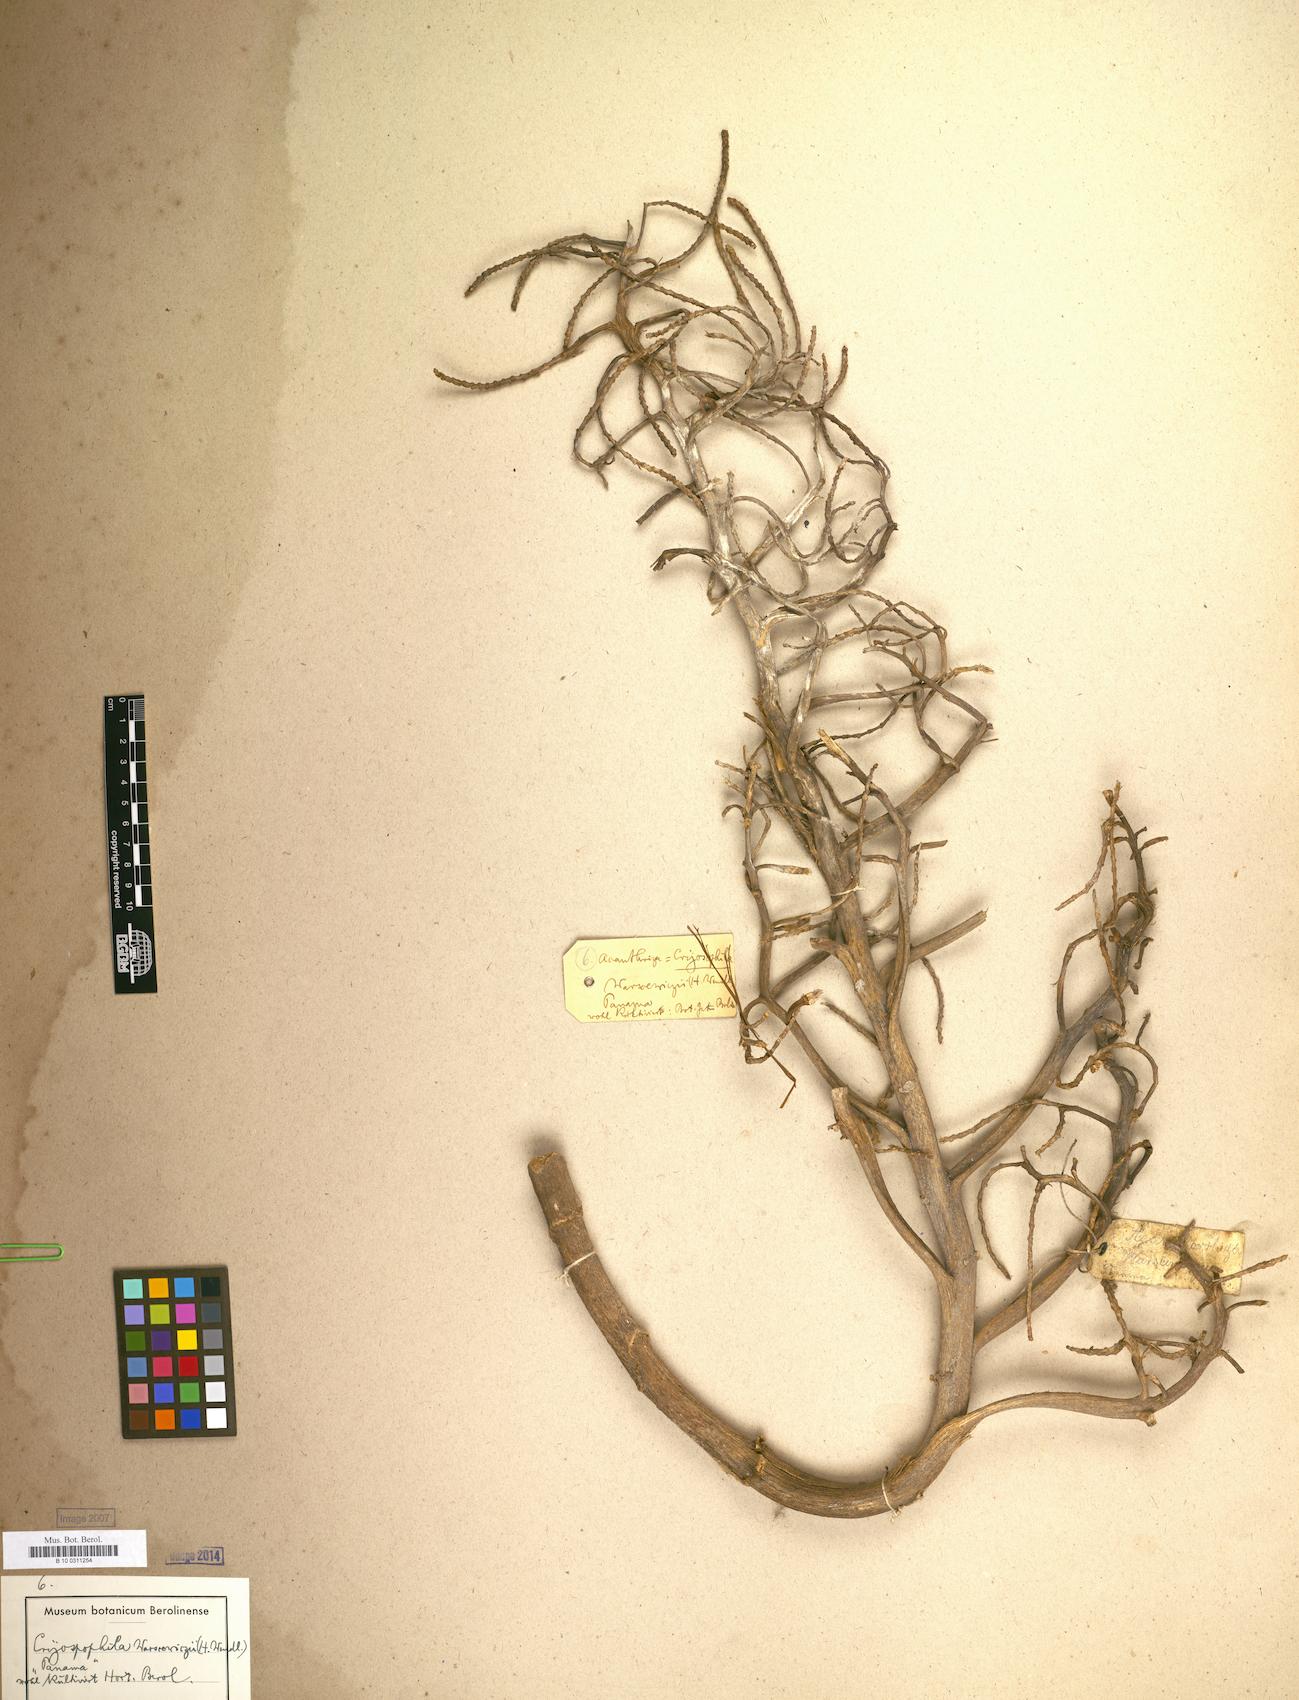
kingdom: Plantae
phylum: Tracheophyta
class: Liliopsida
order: Arecales
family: Arecaceae
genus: Cryosophila
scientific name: Cryosophila warscewiczii
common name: Root-spine palm
